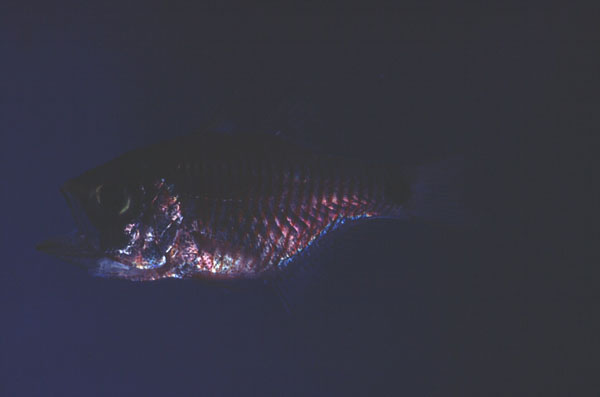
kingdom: Animalia
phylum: Chordata
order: Perciformes
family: Apogonidae
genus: Taeniamia
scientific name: Taeniamia fucata
